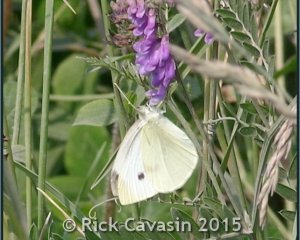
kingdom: Animalia
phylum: Arthropoda
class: Insecta
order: Lepidoptera
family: Pieridae
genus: Pieris
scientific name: Pieris rapae
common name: Cabbage White
